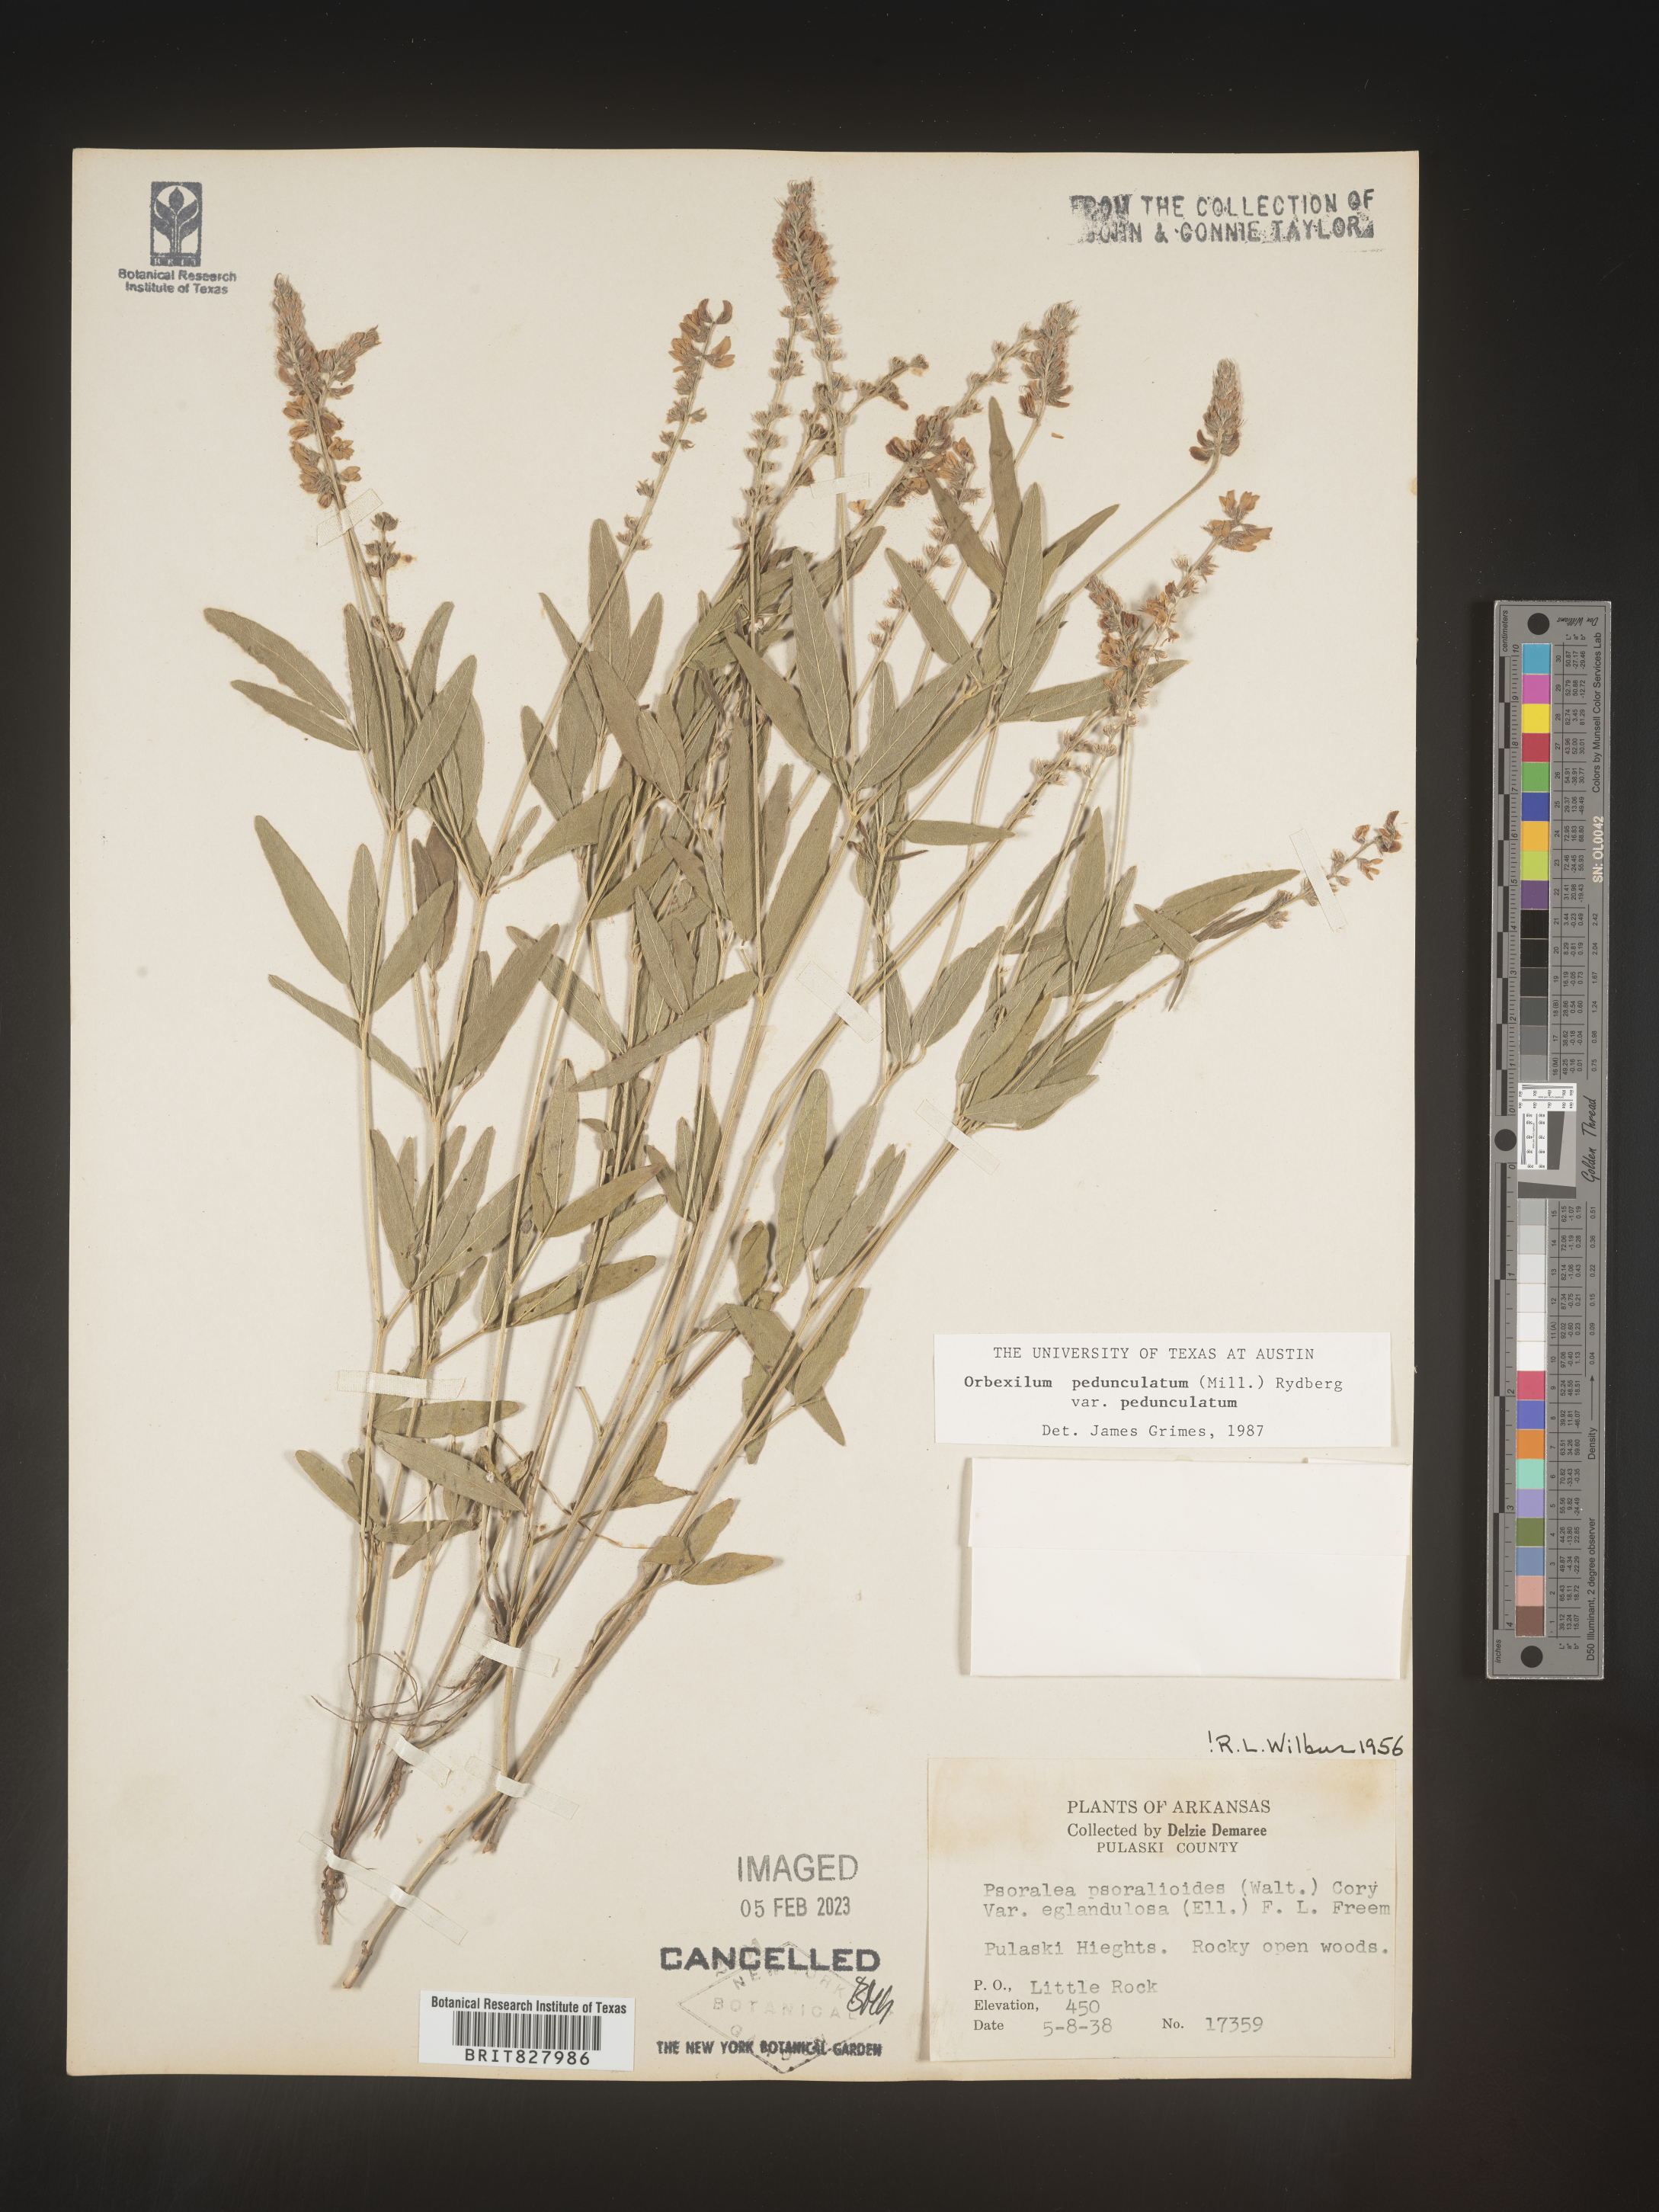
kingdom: Plantae
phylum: Tracheophyta
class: Magnoliopsida
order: Fabales
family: Fabaceae
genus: Orbexilum
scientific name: Orbexilum pedunculatum
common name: Sampson's snakeroot
